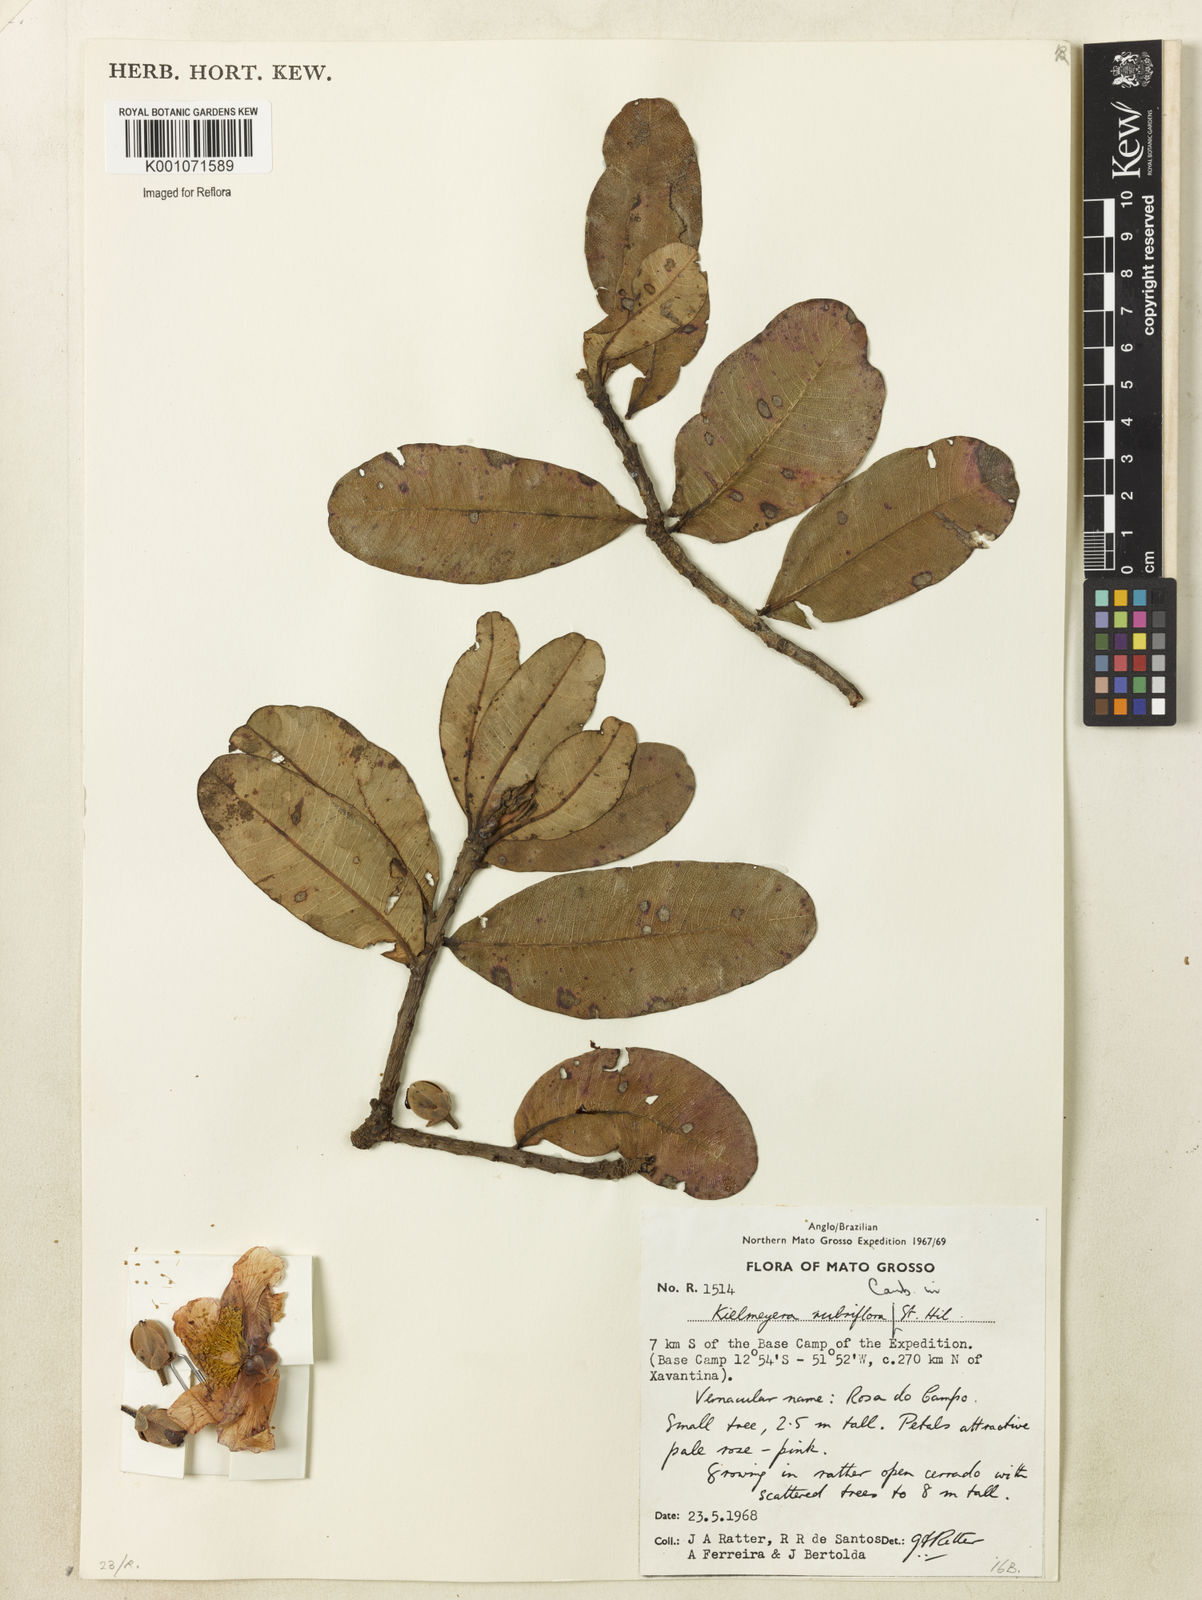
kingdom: Plantae
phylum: Tracheophyta
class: Magnoliopsida
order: Malpighiales
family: Calophyllaceae
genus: Kielmeyera
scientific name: Kielmeyera rubriflora
